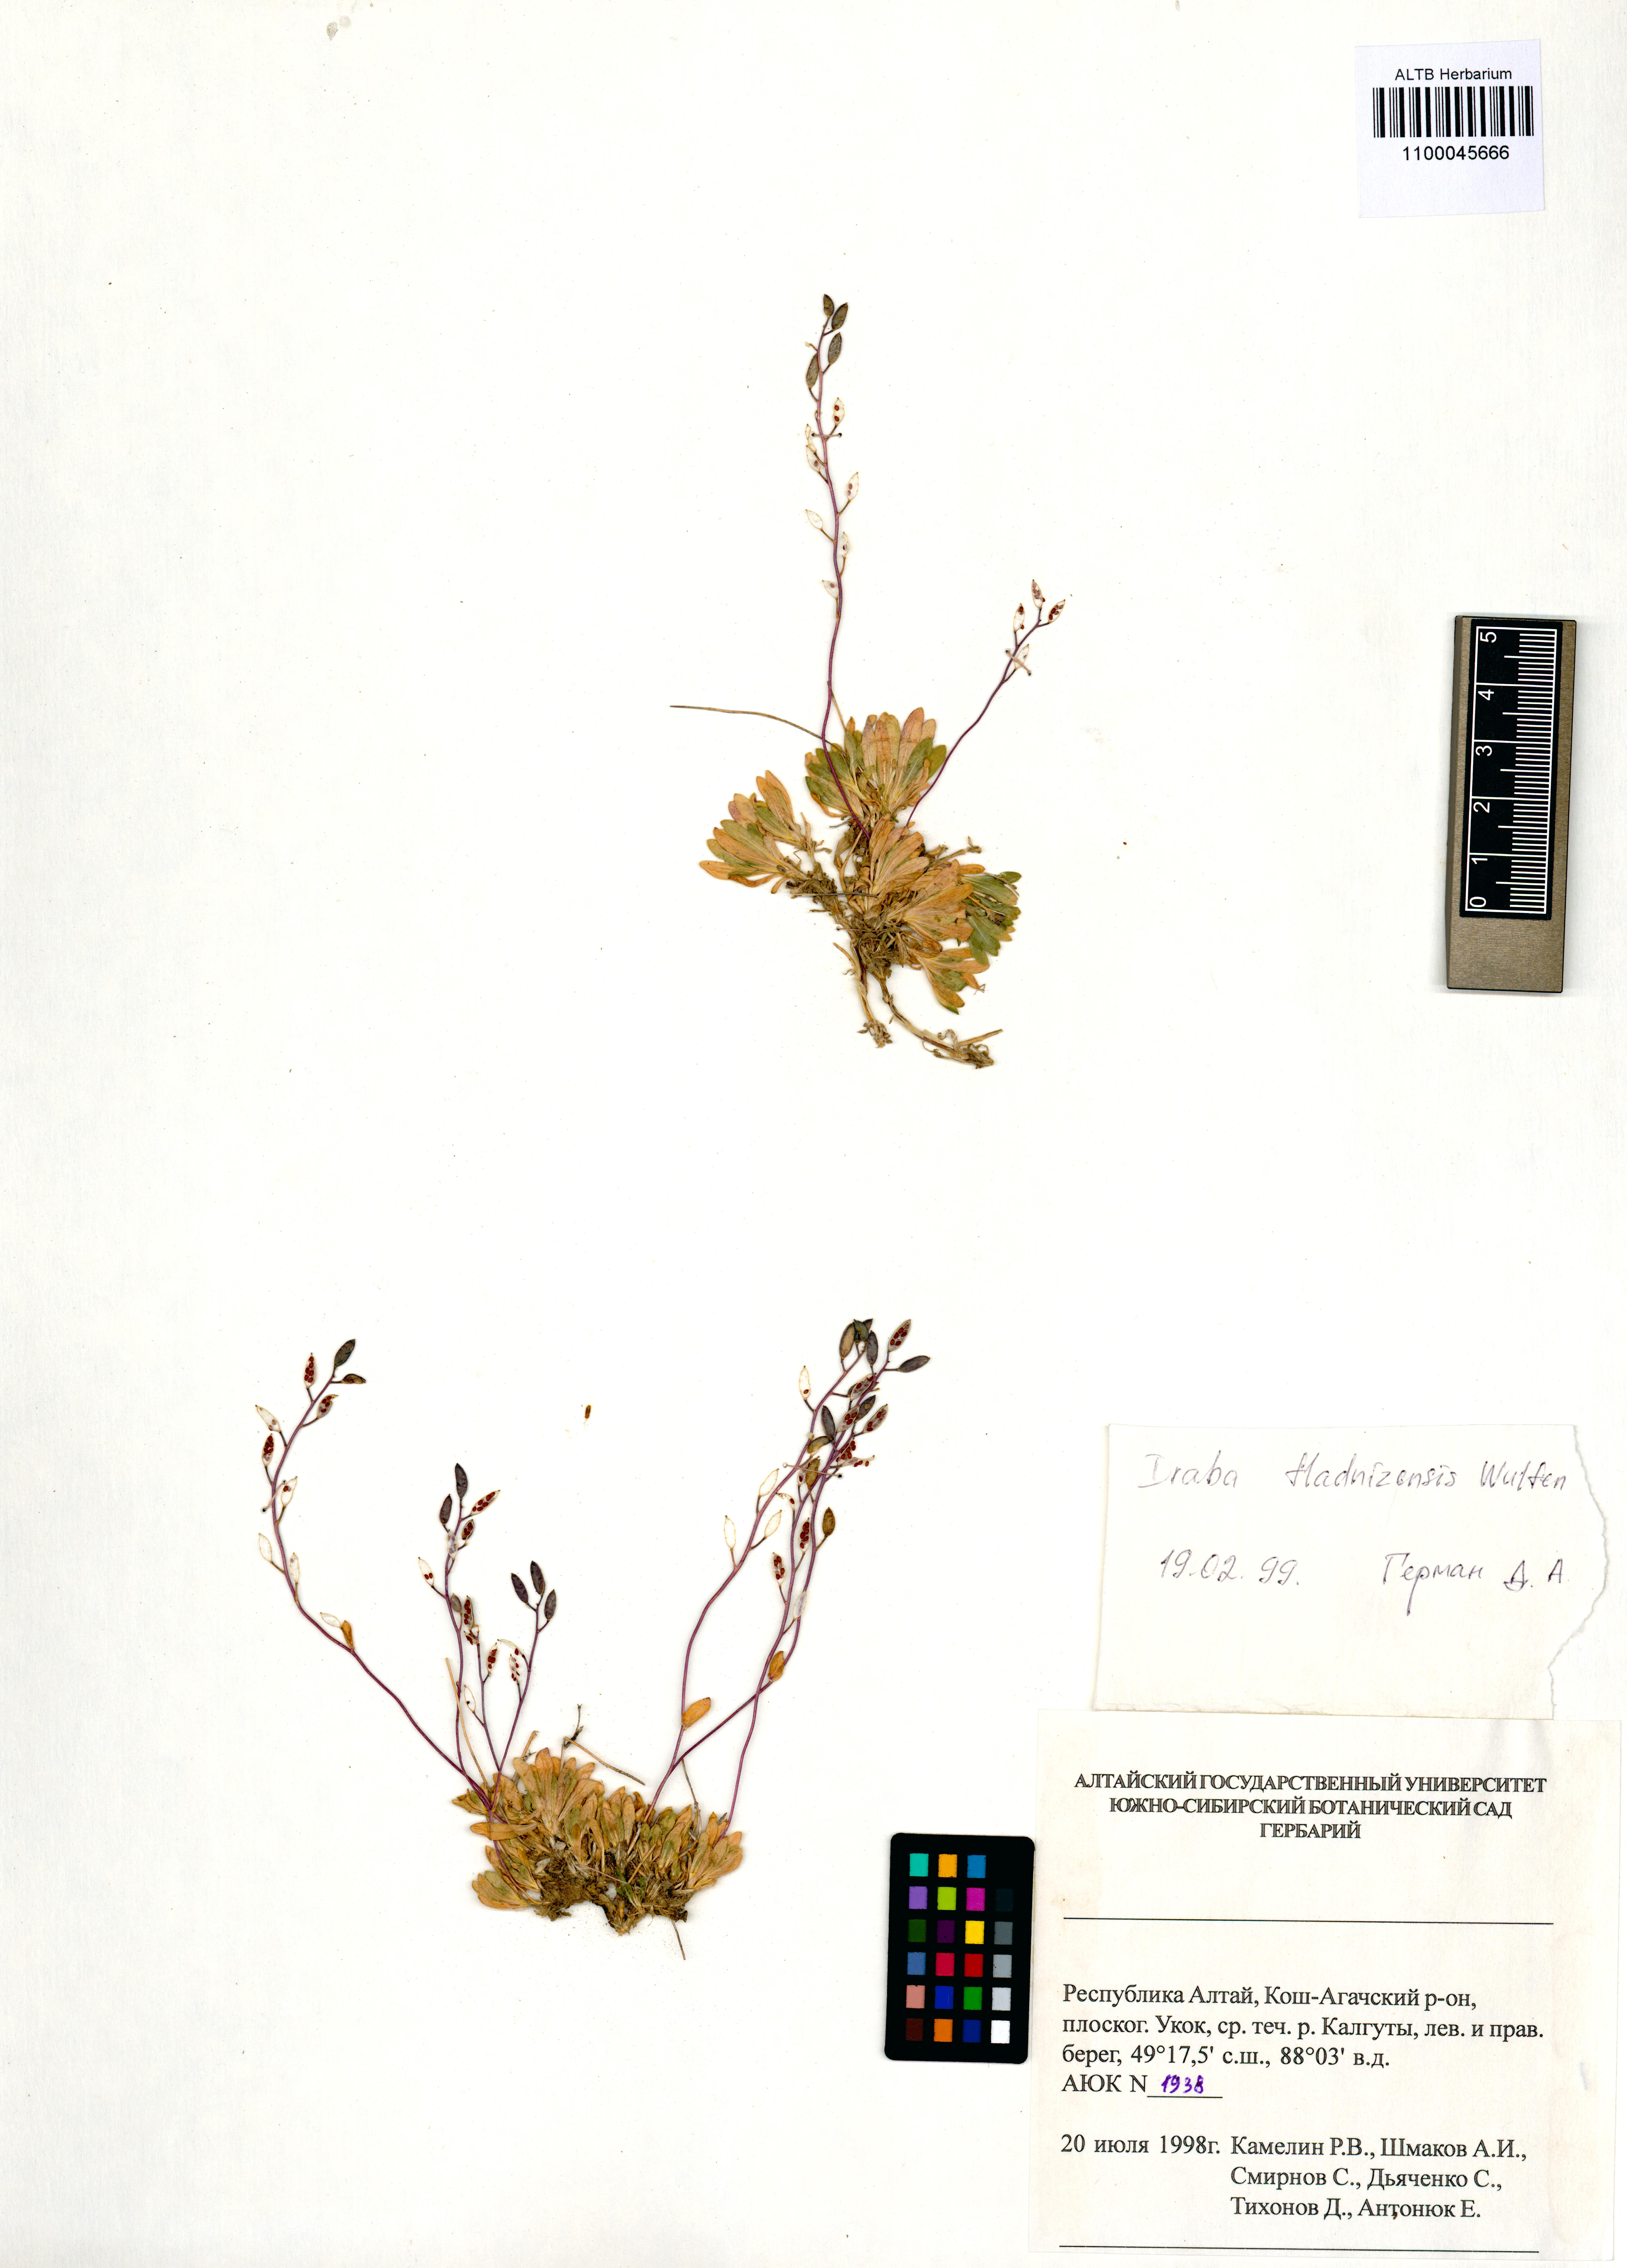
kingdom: Plantae
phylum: Tracheophyta
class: Magnoliopsida
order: Brassicales
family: Brassicaceae
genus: Draba
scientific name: Draba fladnizensis
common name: Austrian draba
